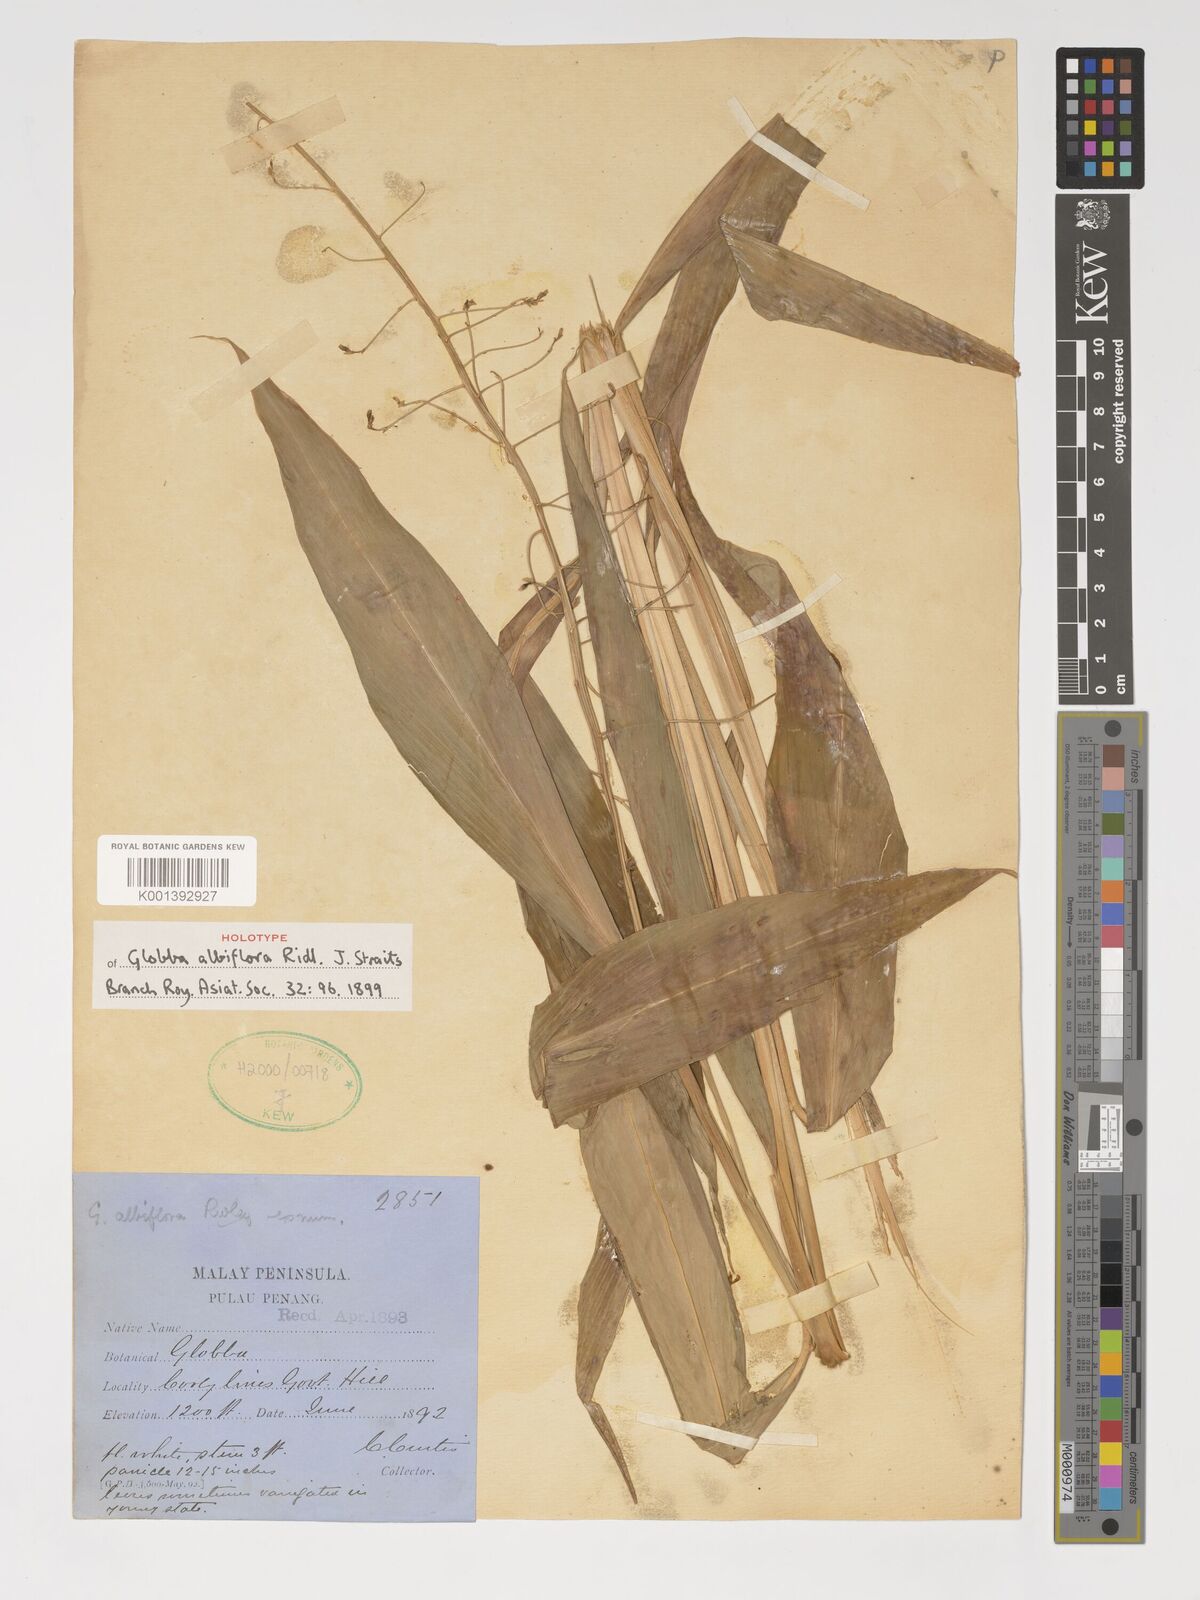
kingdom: Plantae
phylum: Tracheophyta
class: Liliopsida
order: Zingiberales
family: Zingiberaceae
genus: Globba
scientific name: Globba albiflora
